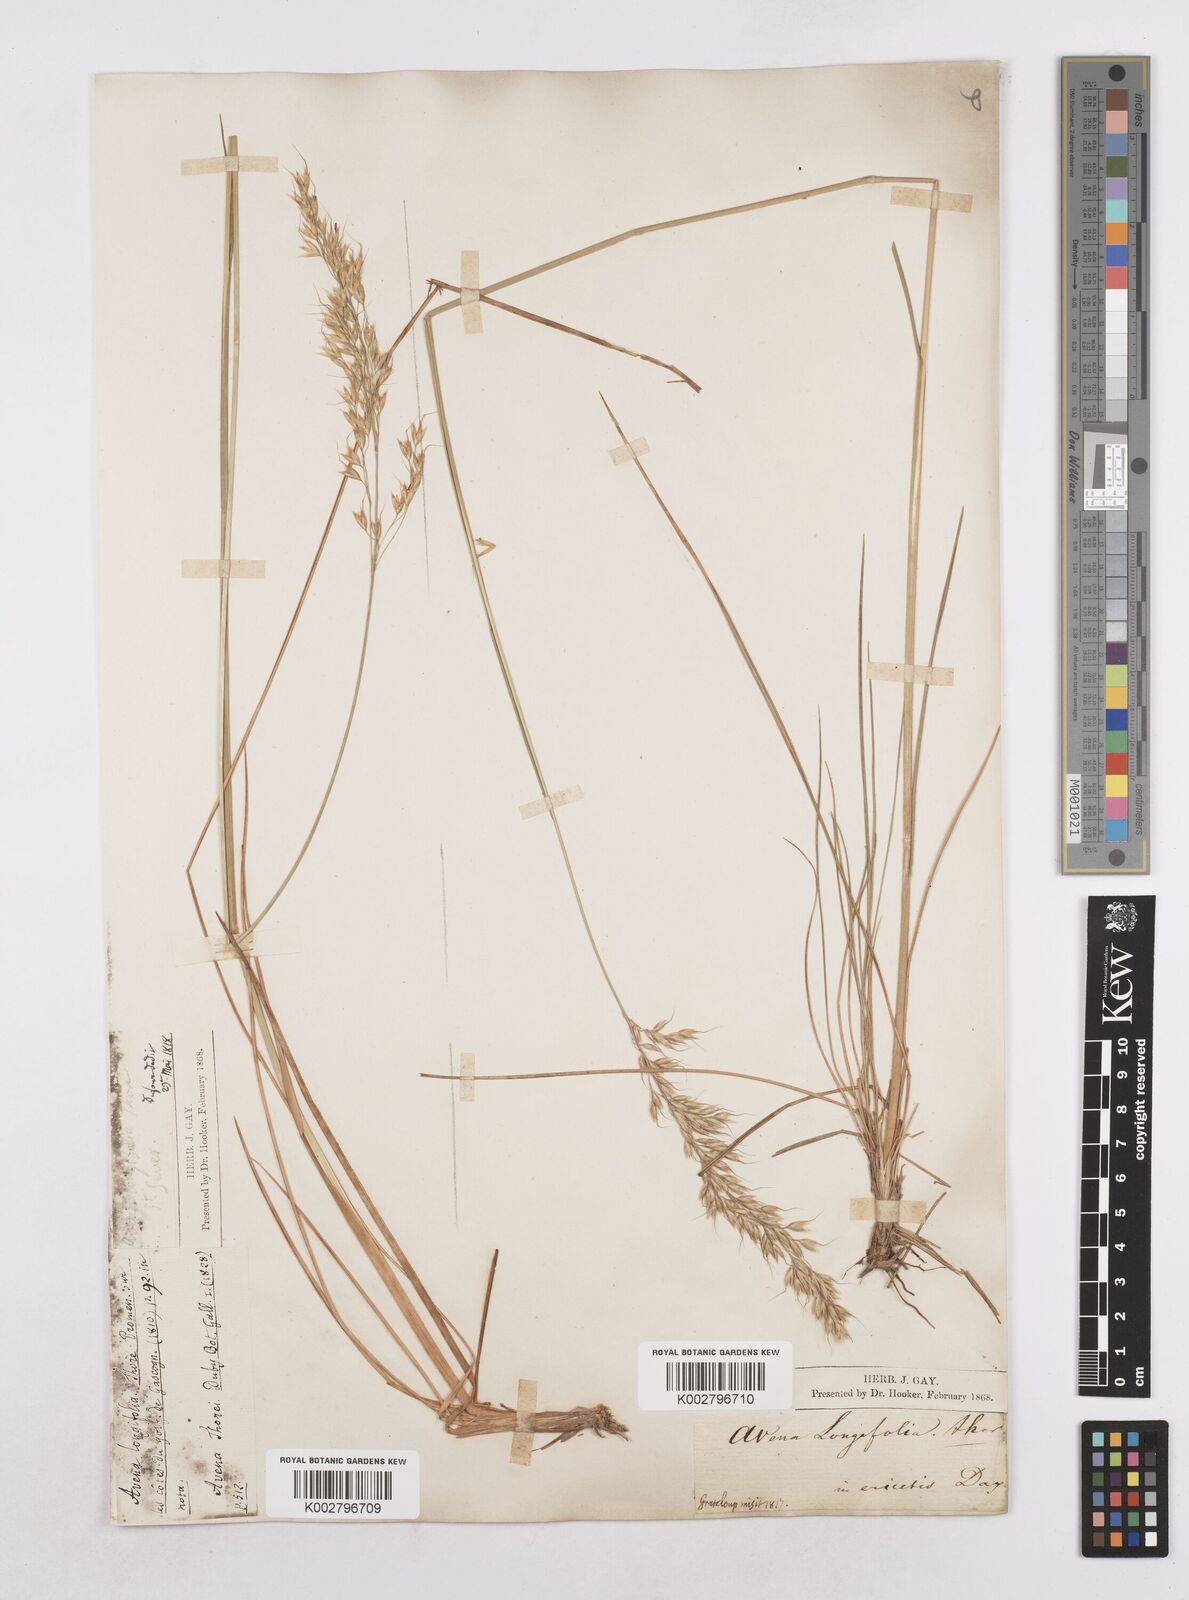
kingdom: Plantae
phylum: Tracheophyta
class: Liliopsida
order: Poales
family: Poaceae
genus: Arrhenatherum
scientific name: Arrhenatherum longifolium
